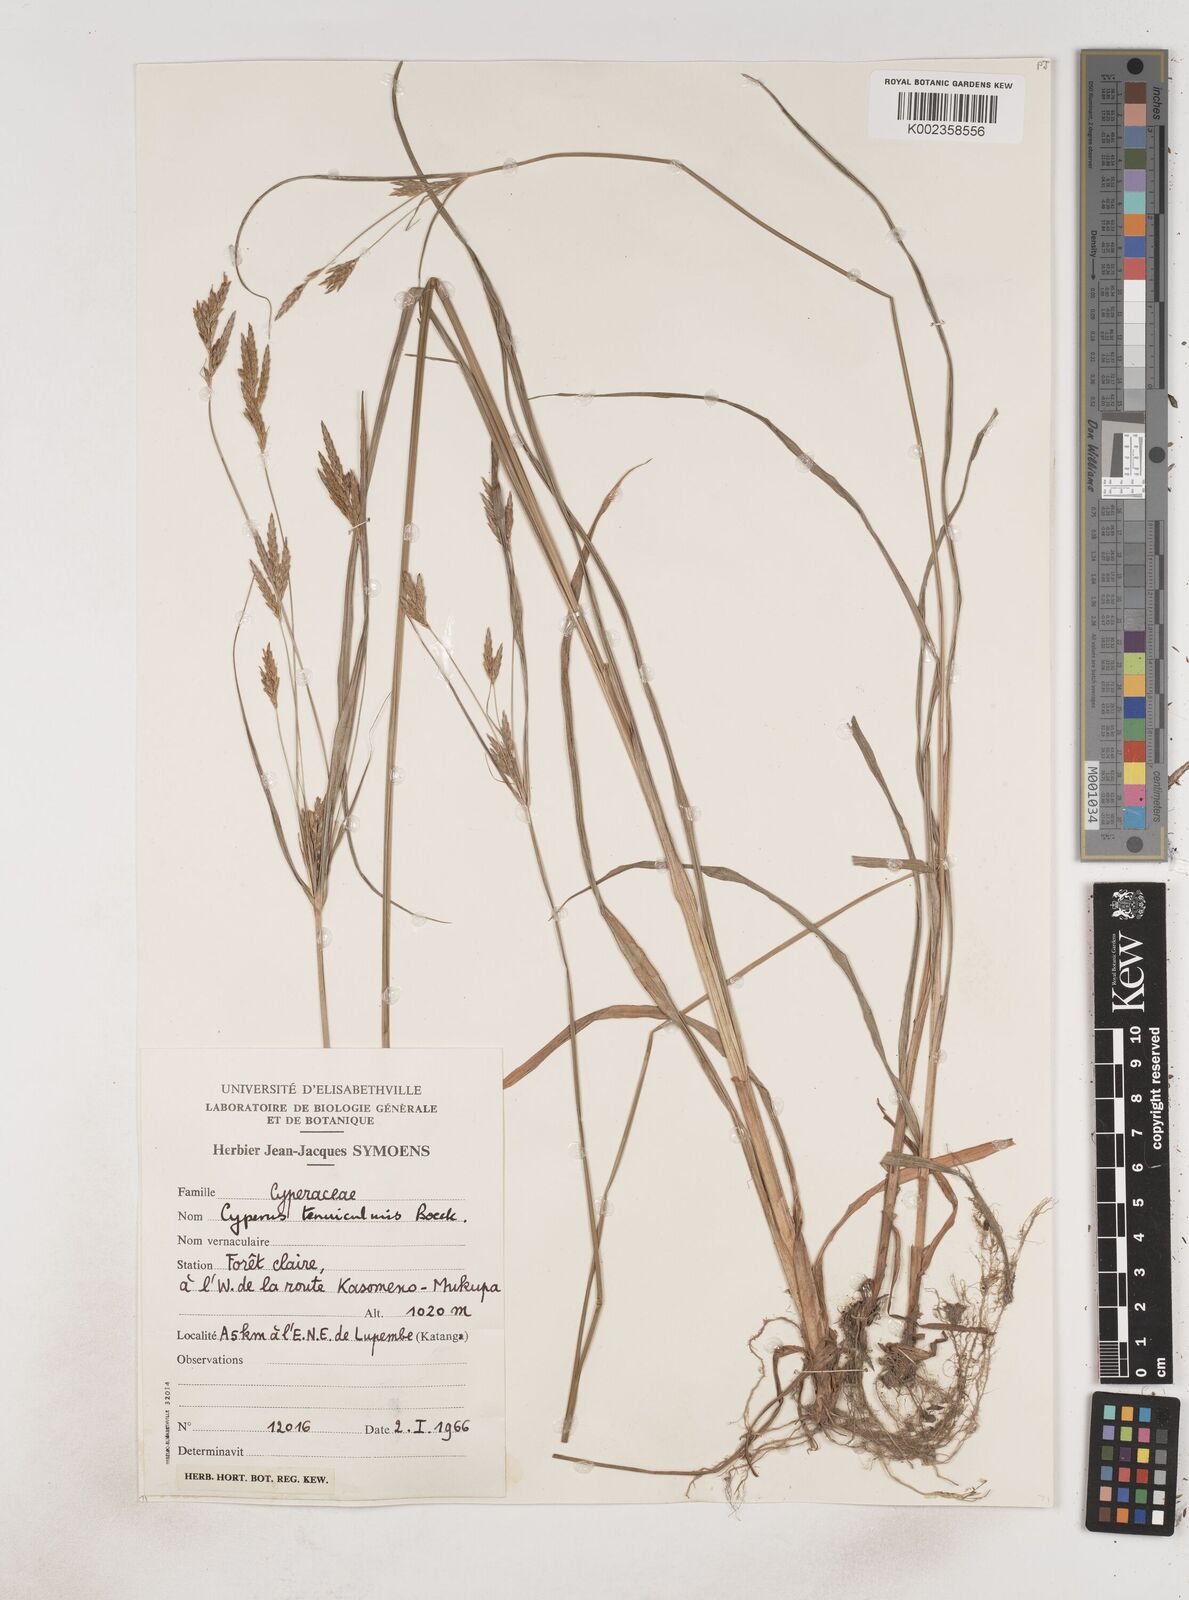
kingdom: Plantae
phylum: Tracheophyta
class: Liliopsida
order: Poales
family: Cyperaceae
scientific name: Cyperaceae
